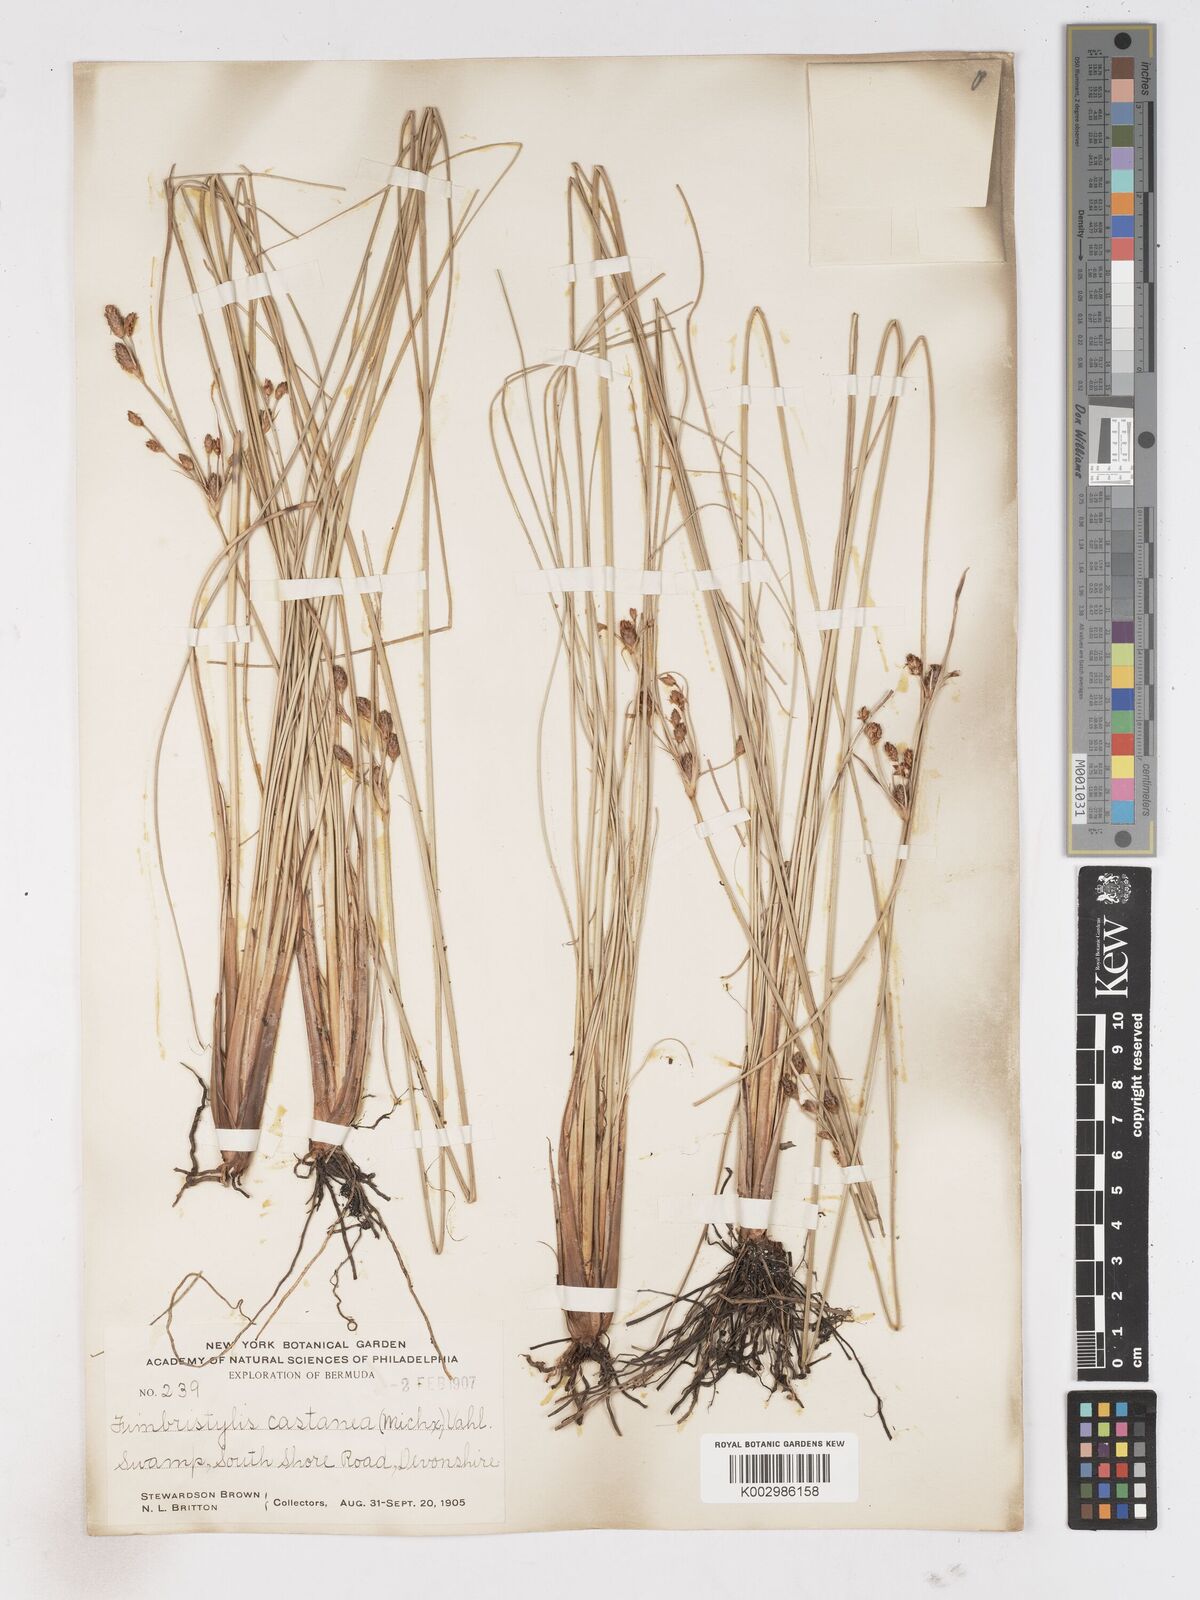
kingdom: Plantae
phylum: Tracheophyta
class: Liliopsida
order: Poales
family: Cyperaceae
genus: Fimbristylis
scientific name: Fimbristylis spadicea
